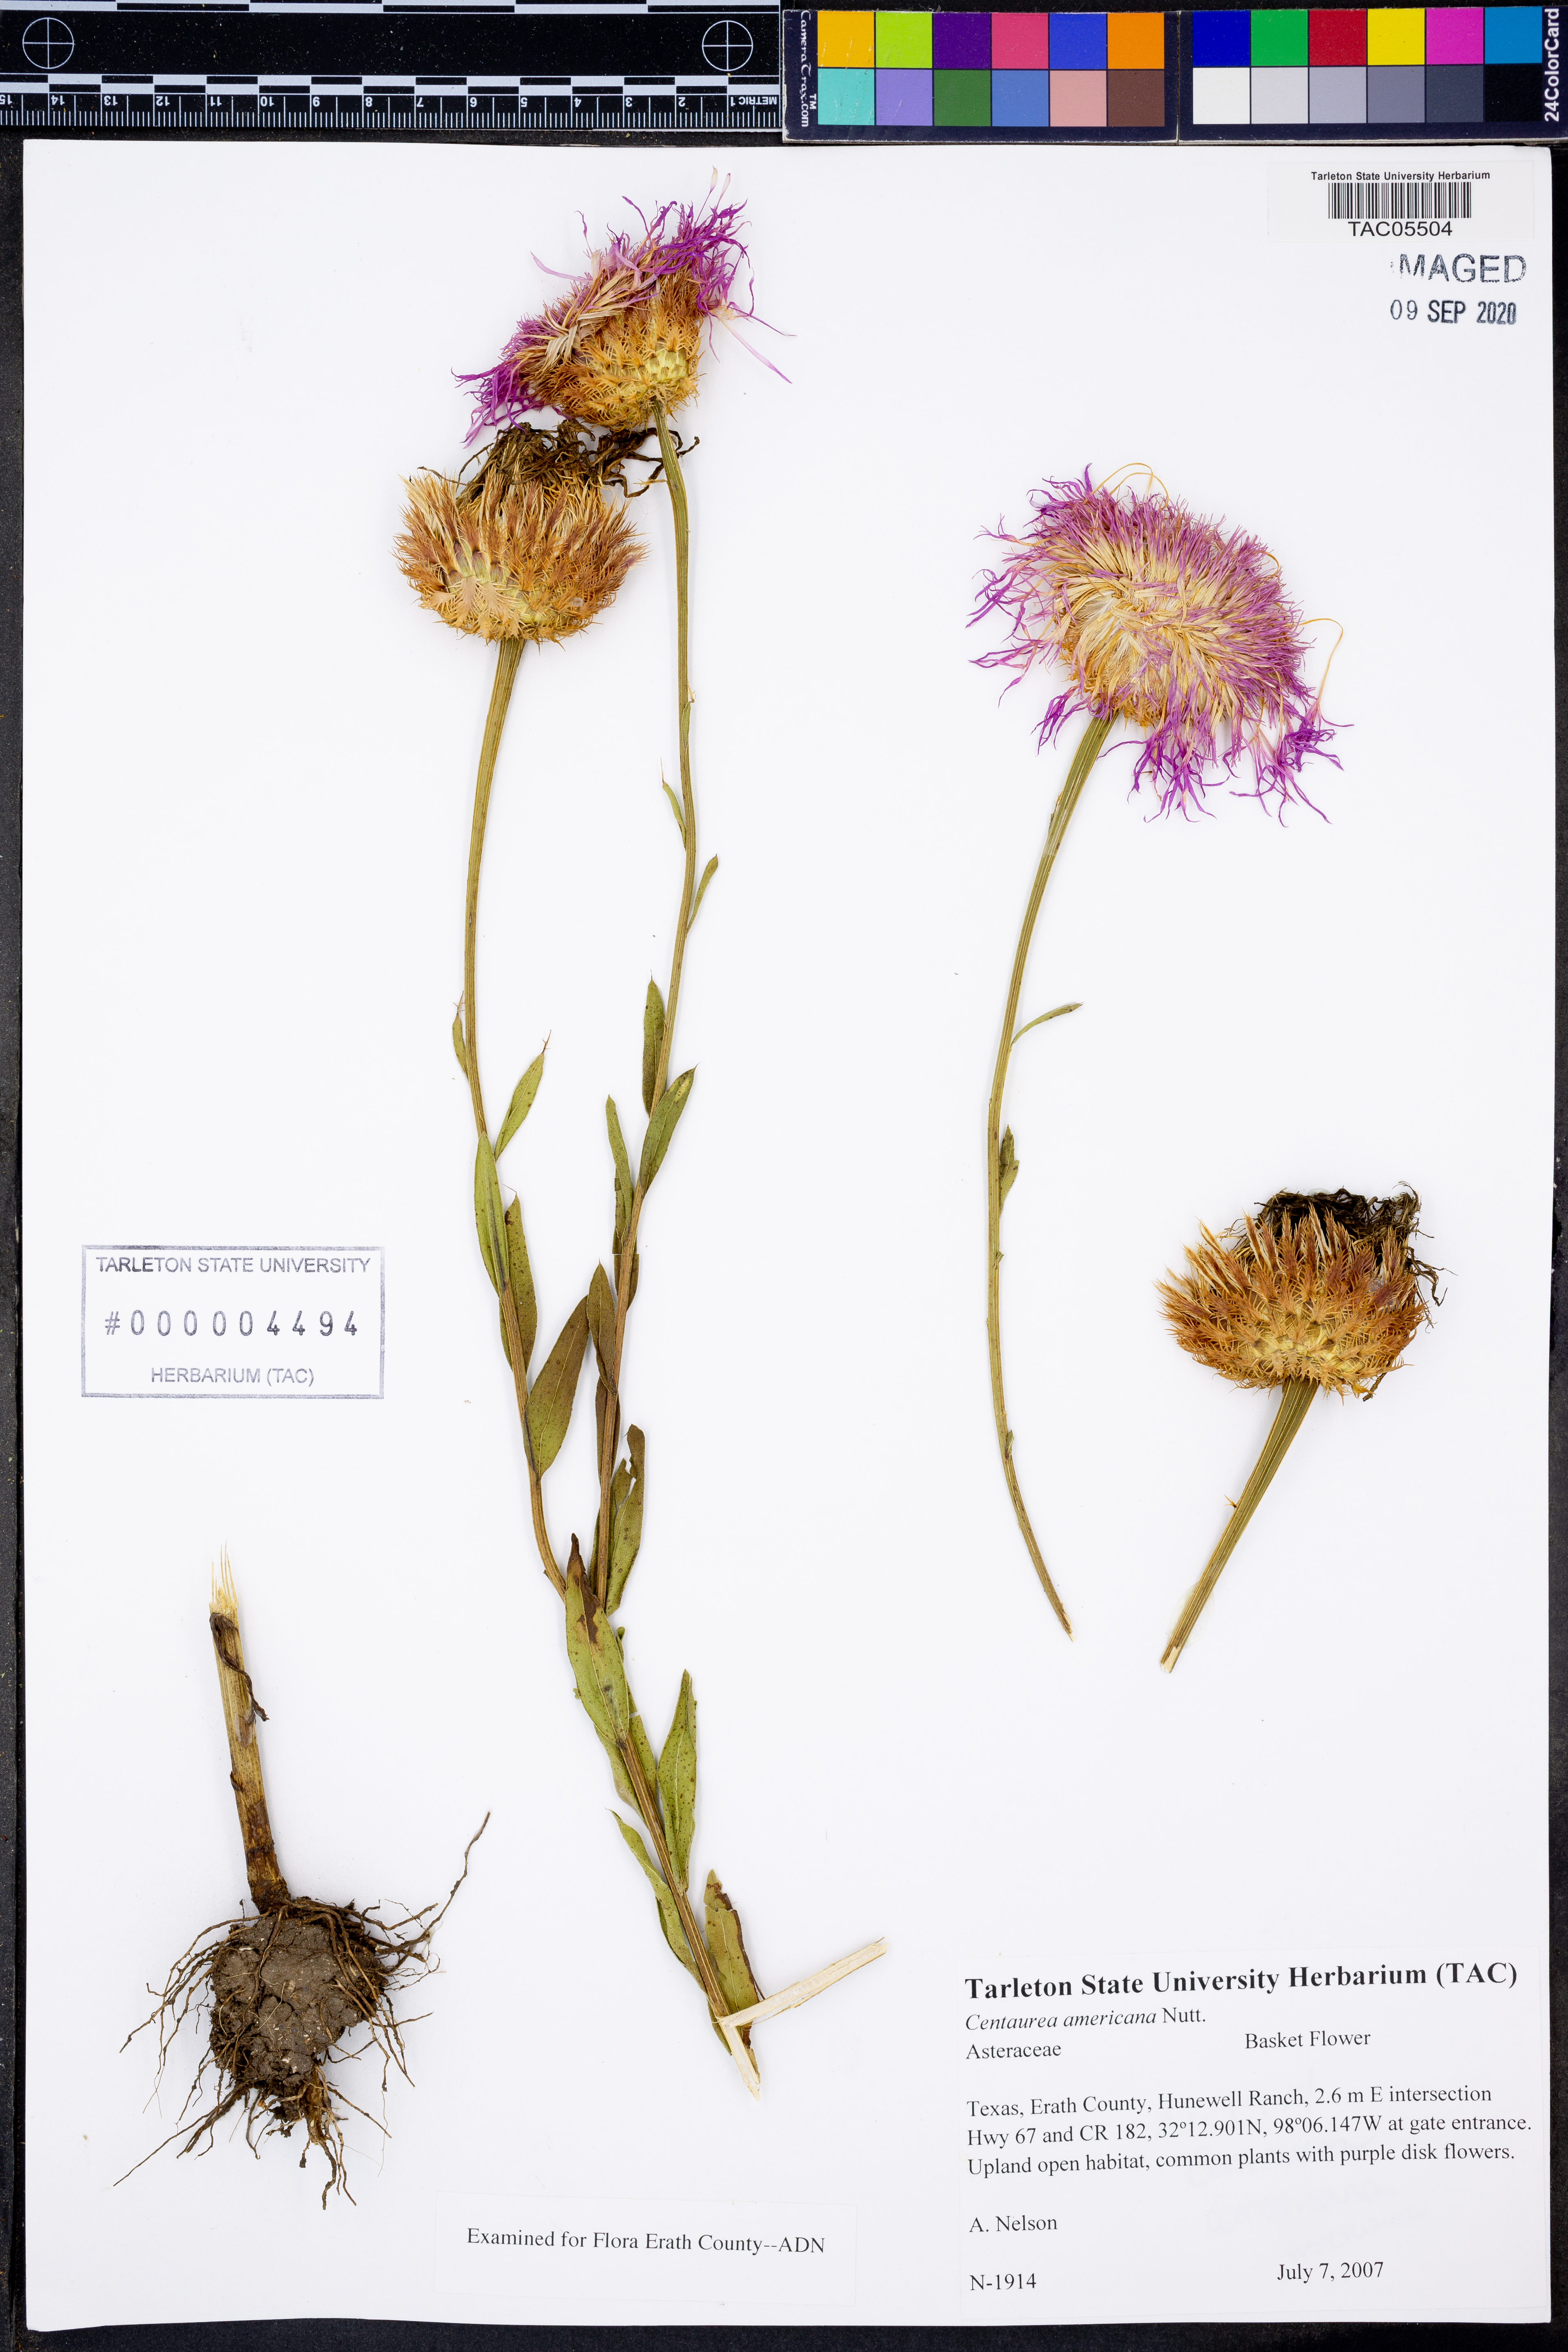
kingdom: Plantae
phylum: Tracheophyta
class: Magnoliopsida
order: Asterales
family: Asteraceae
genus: Plectocephalus
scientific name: Plectocephalus americanus
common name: American basket-flower
